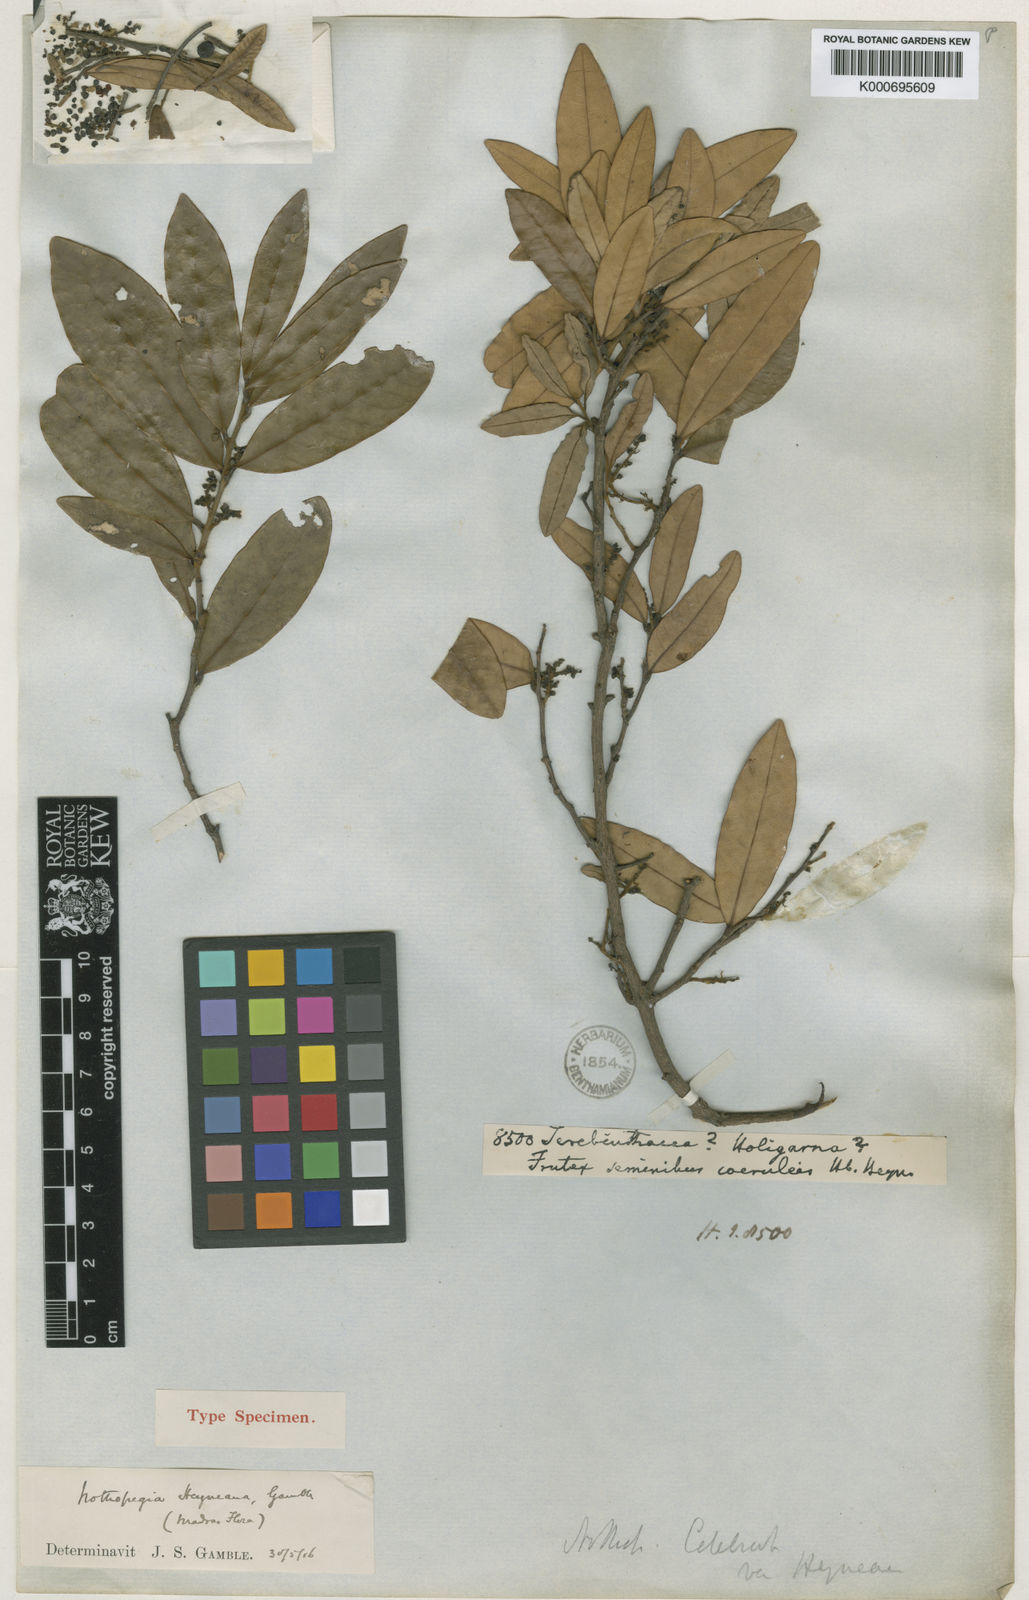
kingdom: Plantae
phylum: Tracheophyta
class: Magnoliopsida
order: Sapindales
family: Anacardiaceae
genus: Nothopegia
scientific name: Nothopegia heyneana
